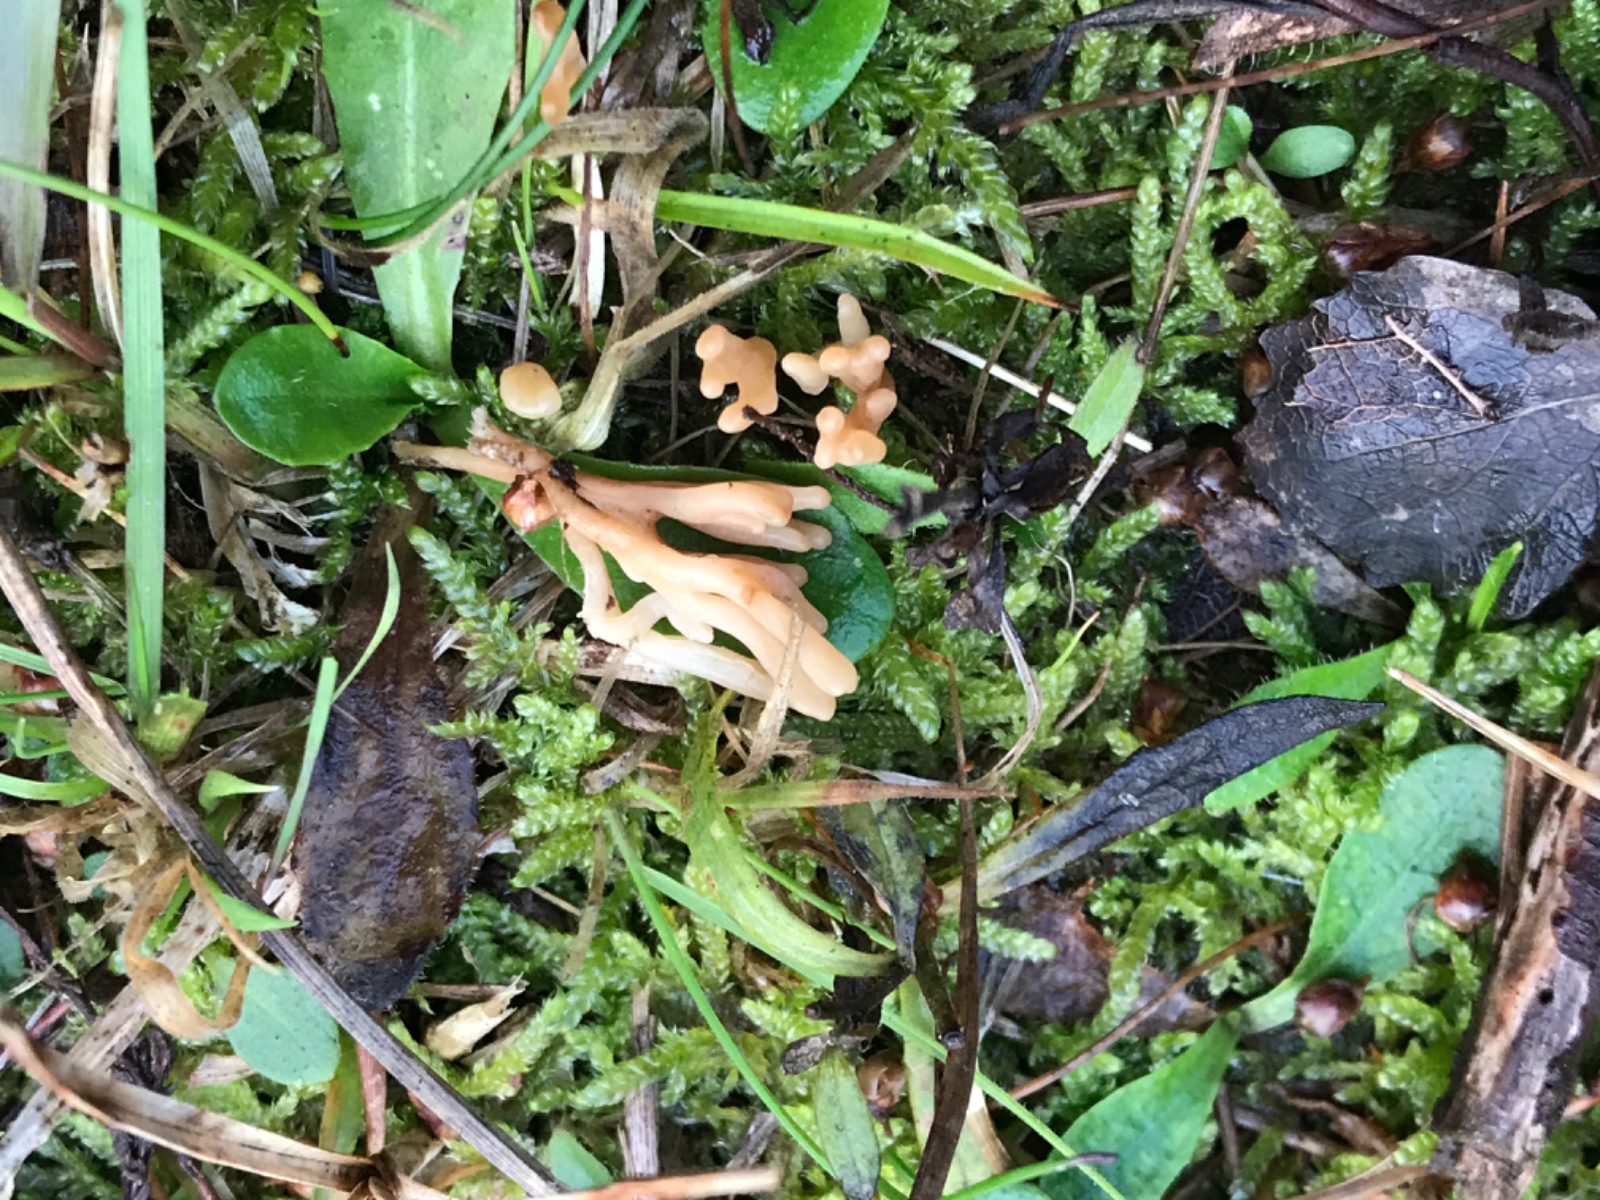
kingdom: Fungi
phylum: Basidiomycota
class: Agaricomycetes
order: Agaricales
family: Clavariaceae
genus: Ramariopsis
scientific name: Ramariopsis
